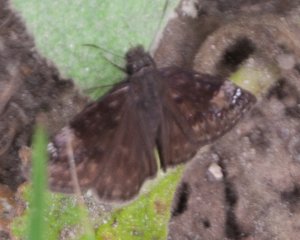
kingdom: Animalia
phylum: Arthropoda
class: Insecta
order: Lepidoptera
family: Hesperiidae
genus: Gesta
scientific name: Gesta
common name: Wild Indigo Duskywing
